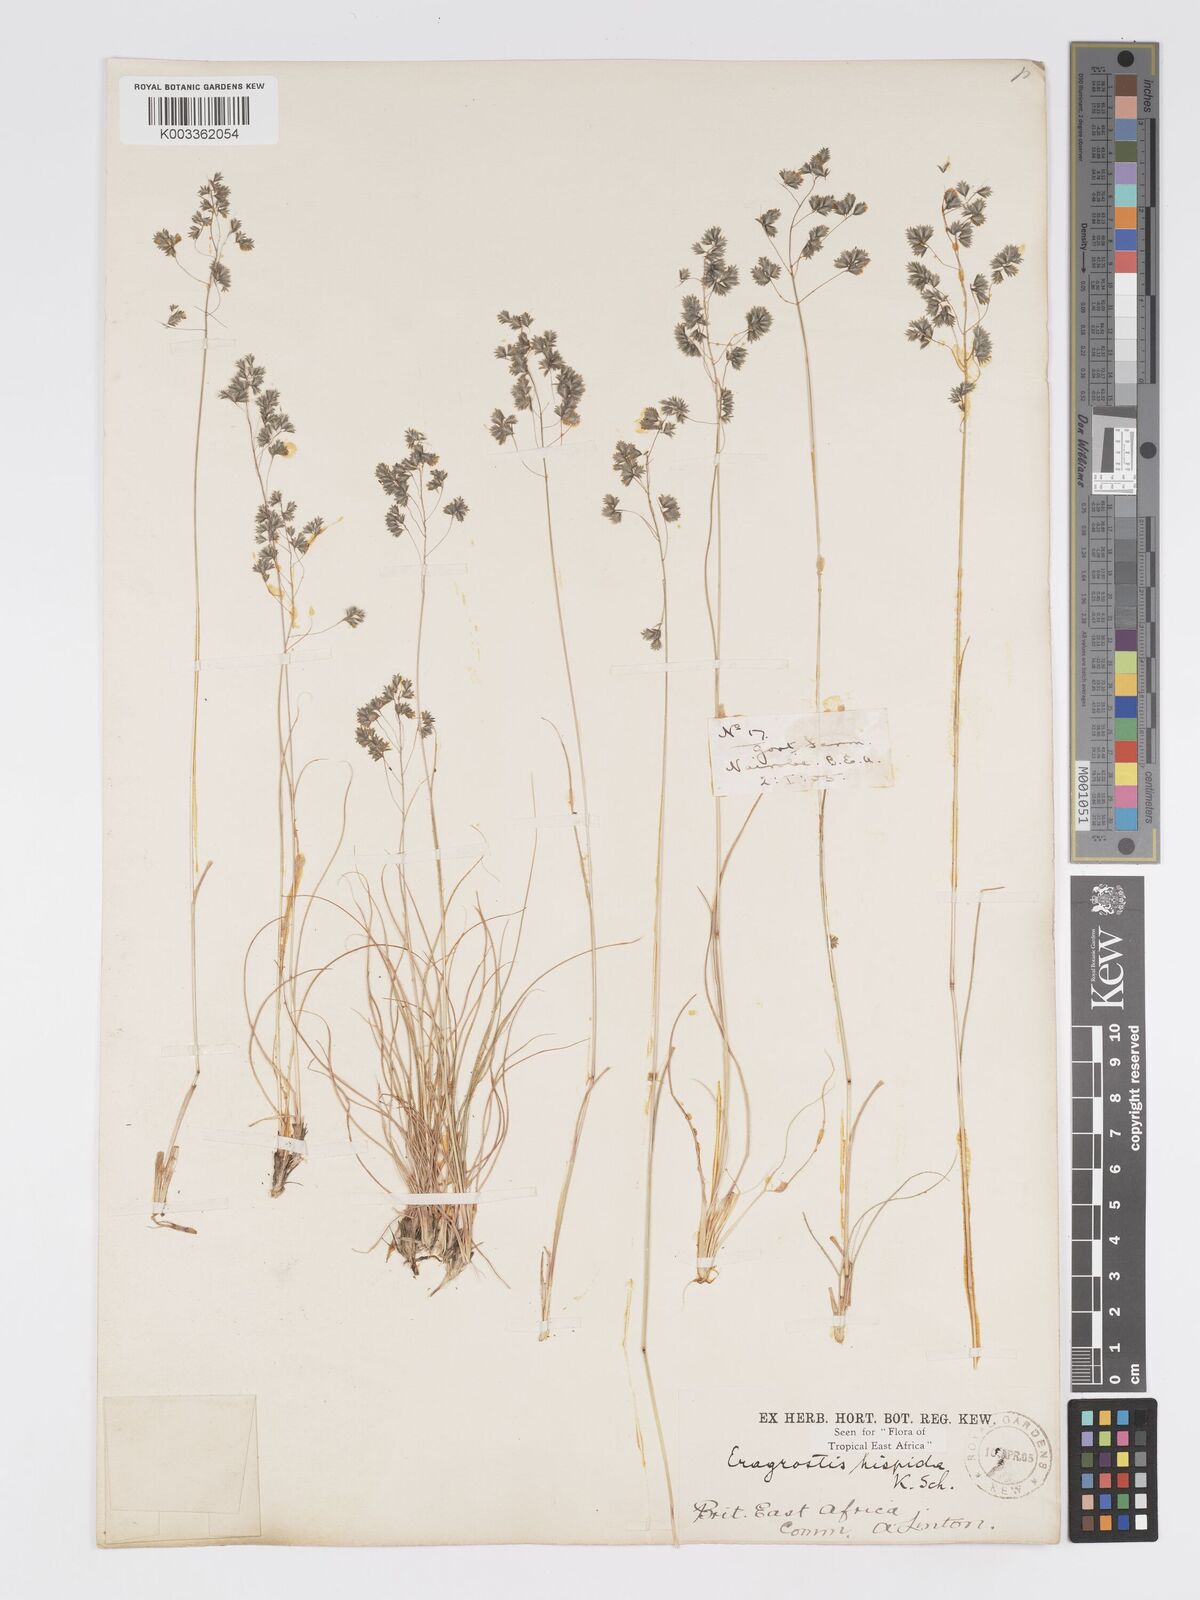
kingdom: Plantae
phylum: Tracheophyta
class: Liliopsida
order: Poales
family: Poaceae
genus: Eragrostis
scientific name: Eragrostis hispida
